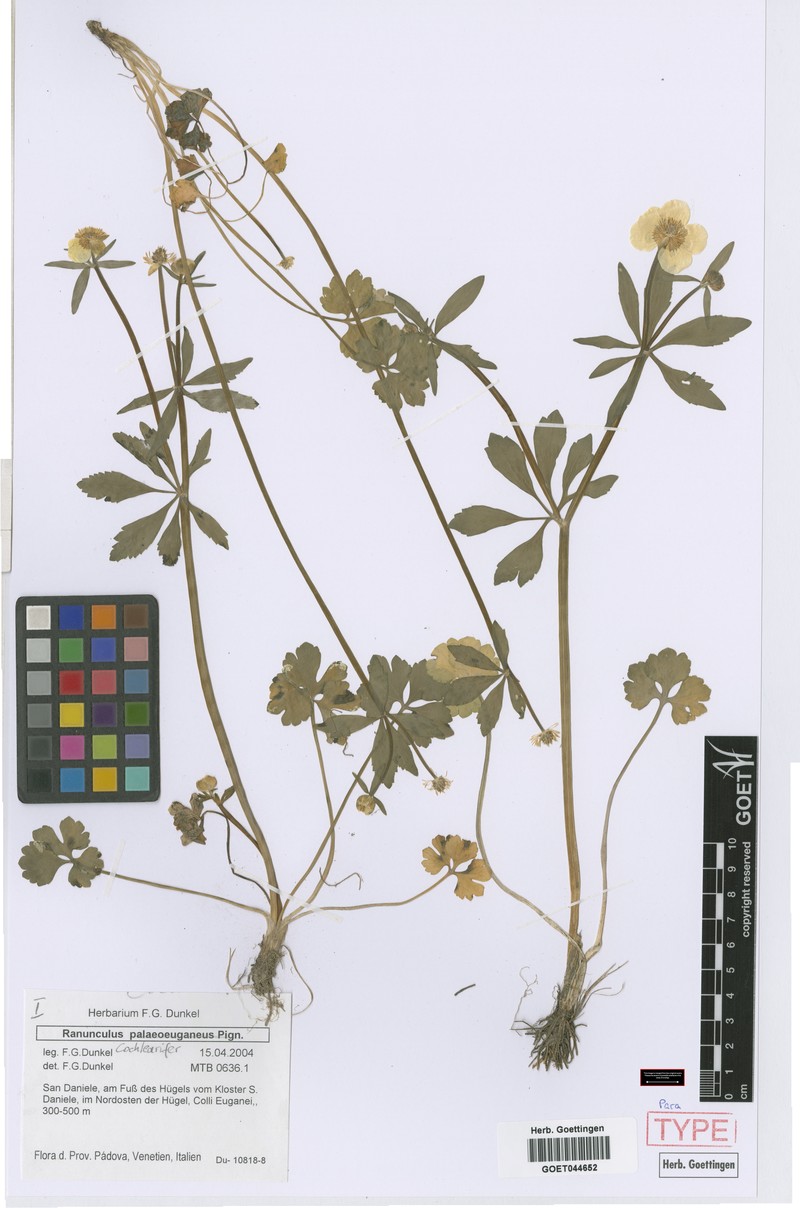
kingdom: Plantae
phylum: Tracheophyta
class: Magnoliopsida
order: Ranunculales
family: Ranunculaceae
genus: Ranunculus
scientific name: Ranunculus cochlearifer
